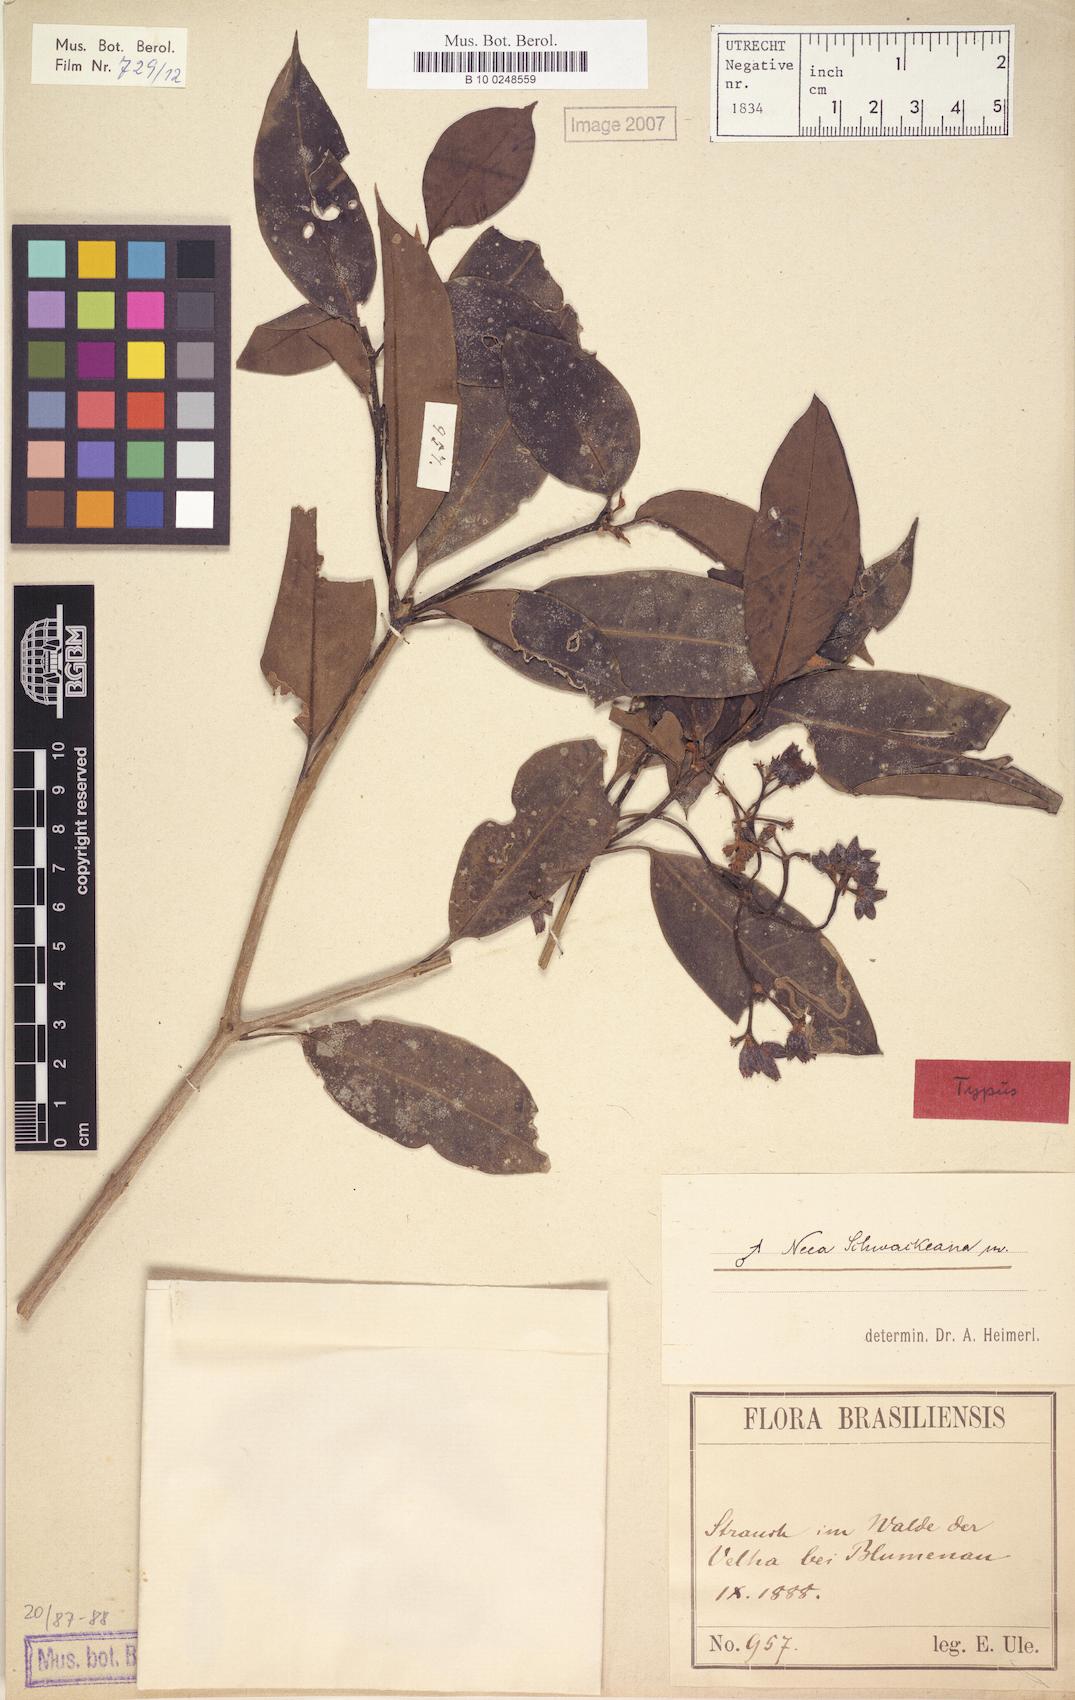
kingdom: Plantae
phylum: Tracheophyta
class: Magnoliopsida
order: Caryophyllales
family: Nyctaginaceae
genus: Neea
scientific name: Neea schwackeana
